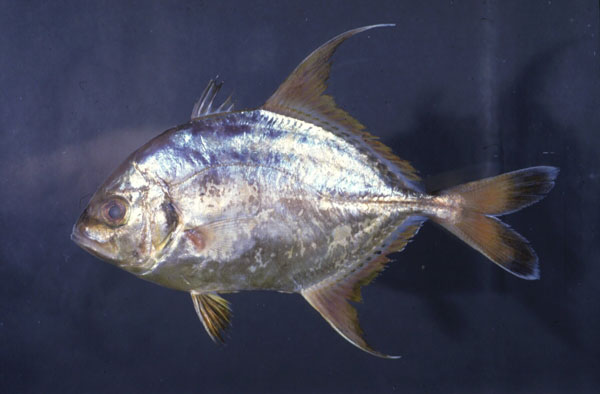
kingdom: Animalia
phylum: Chordata
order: Perciformes
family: Carangidae
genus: Carangoides
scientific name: Carangoides dinema
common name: Shadow trevally
